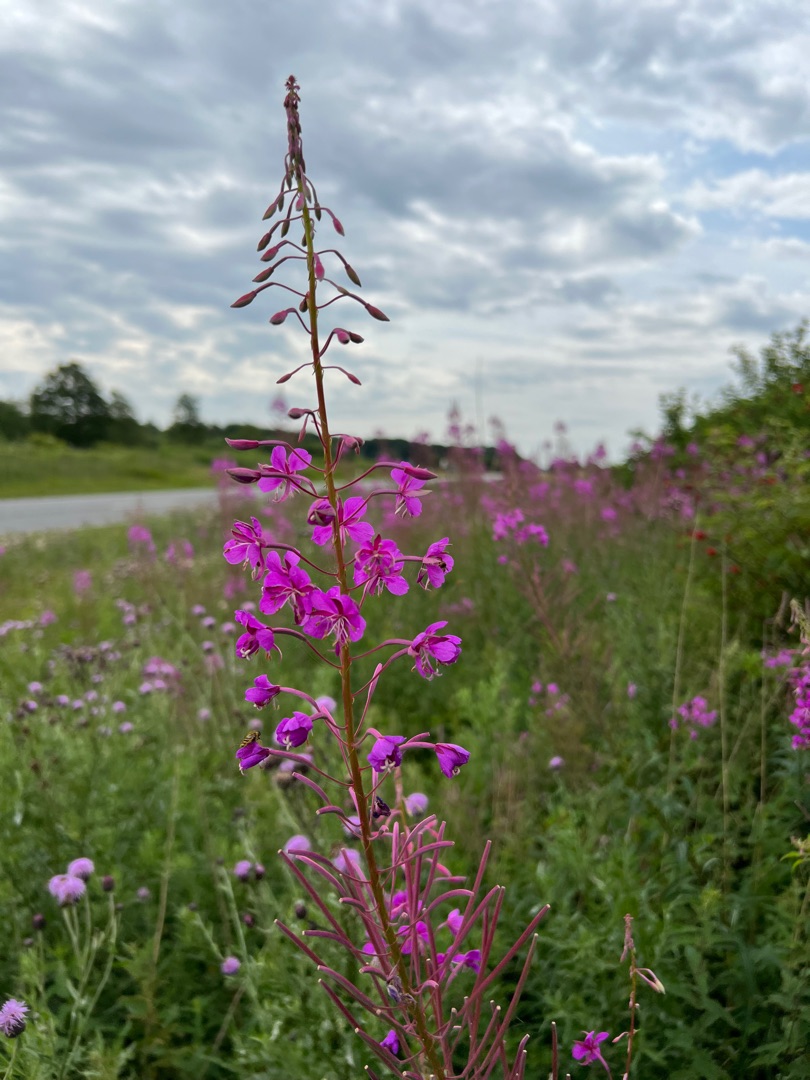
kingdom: Plantae
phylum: Tracheophyta
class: Magnoliopsida
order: Myrtales
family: Onagraceae
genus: Chamaenerion
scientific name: Chamaenerion angustifolium
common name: Gederams
